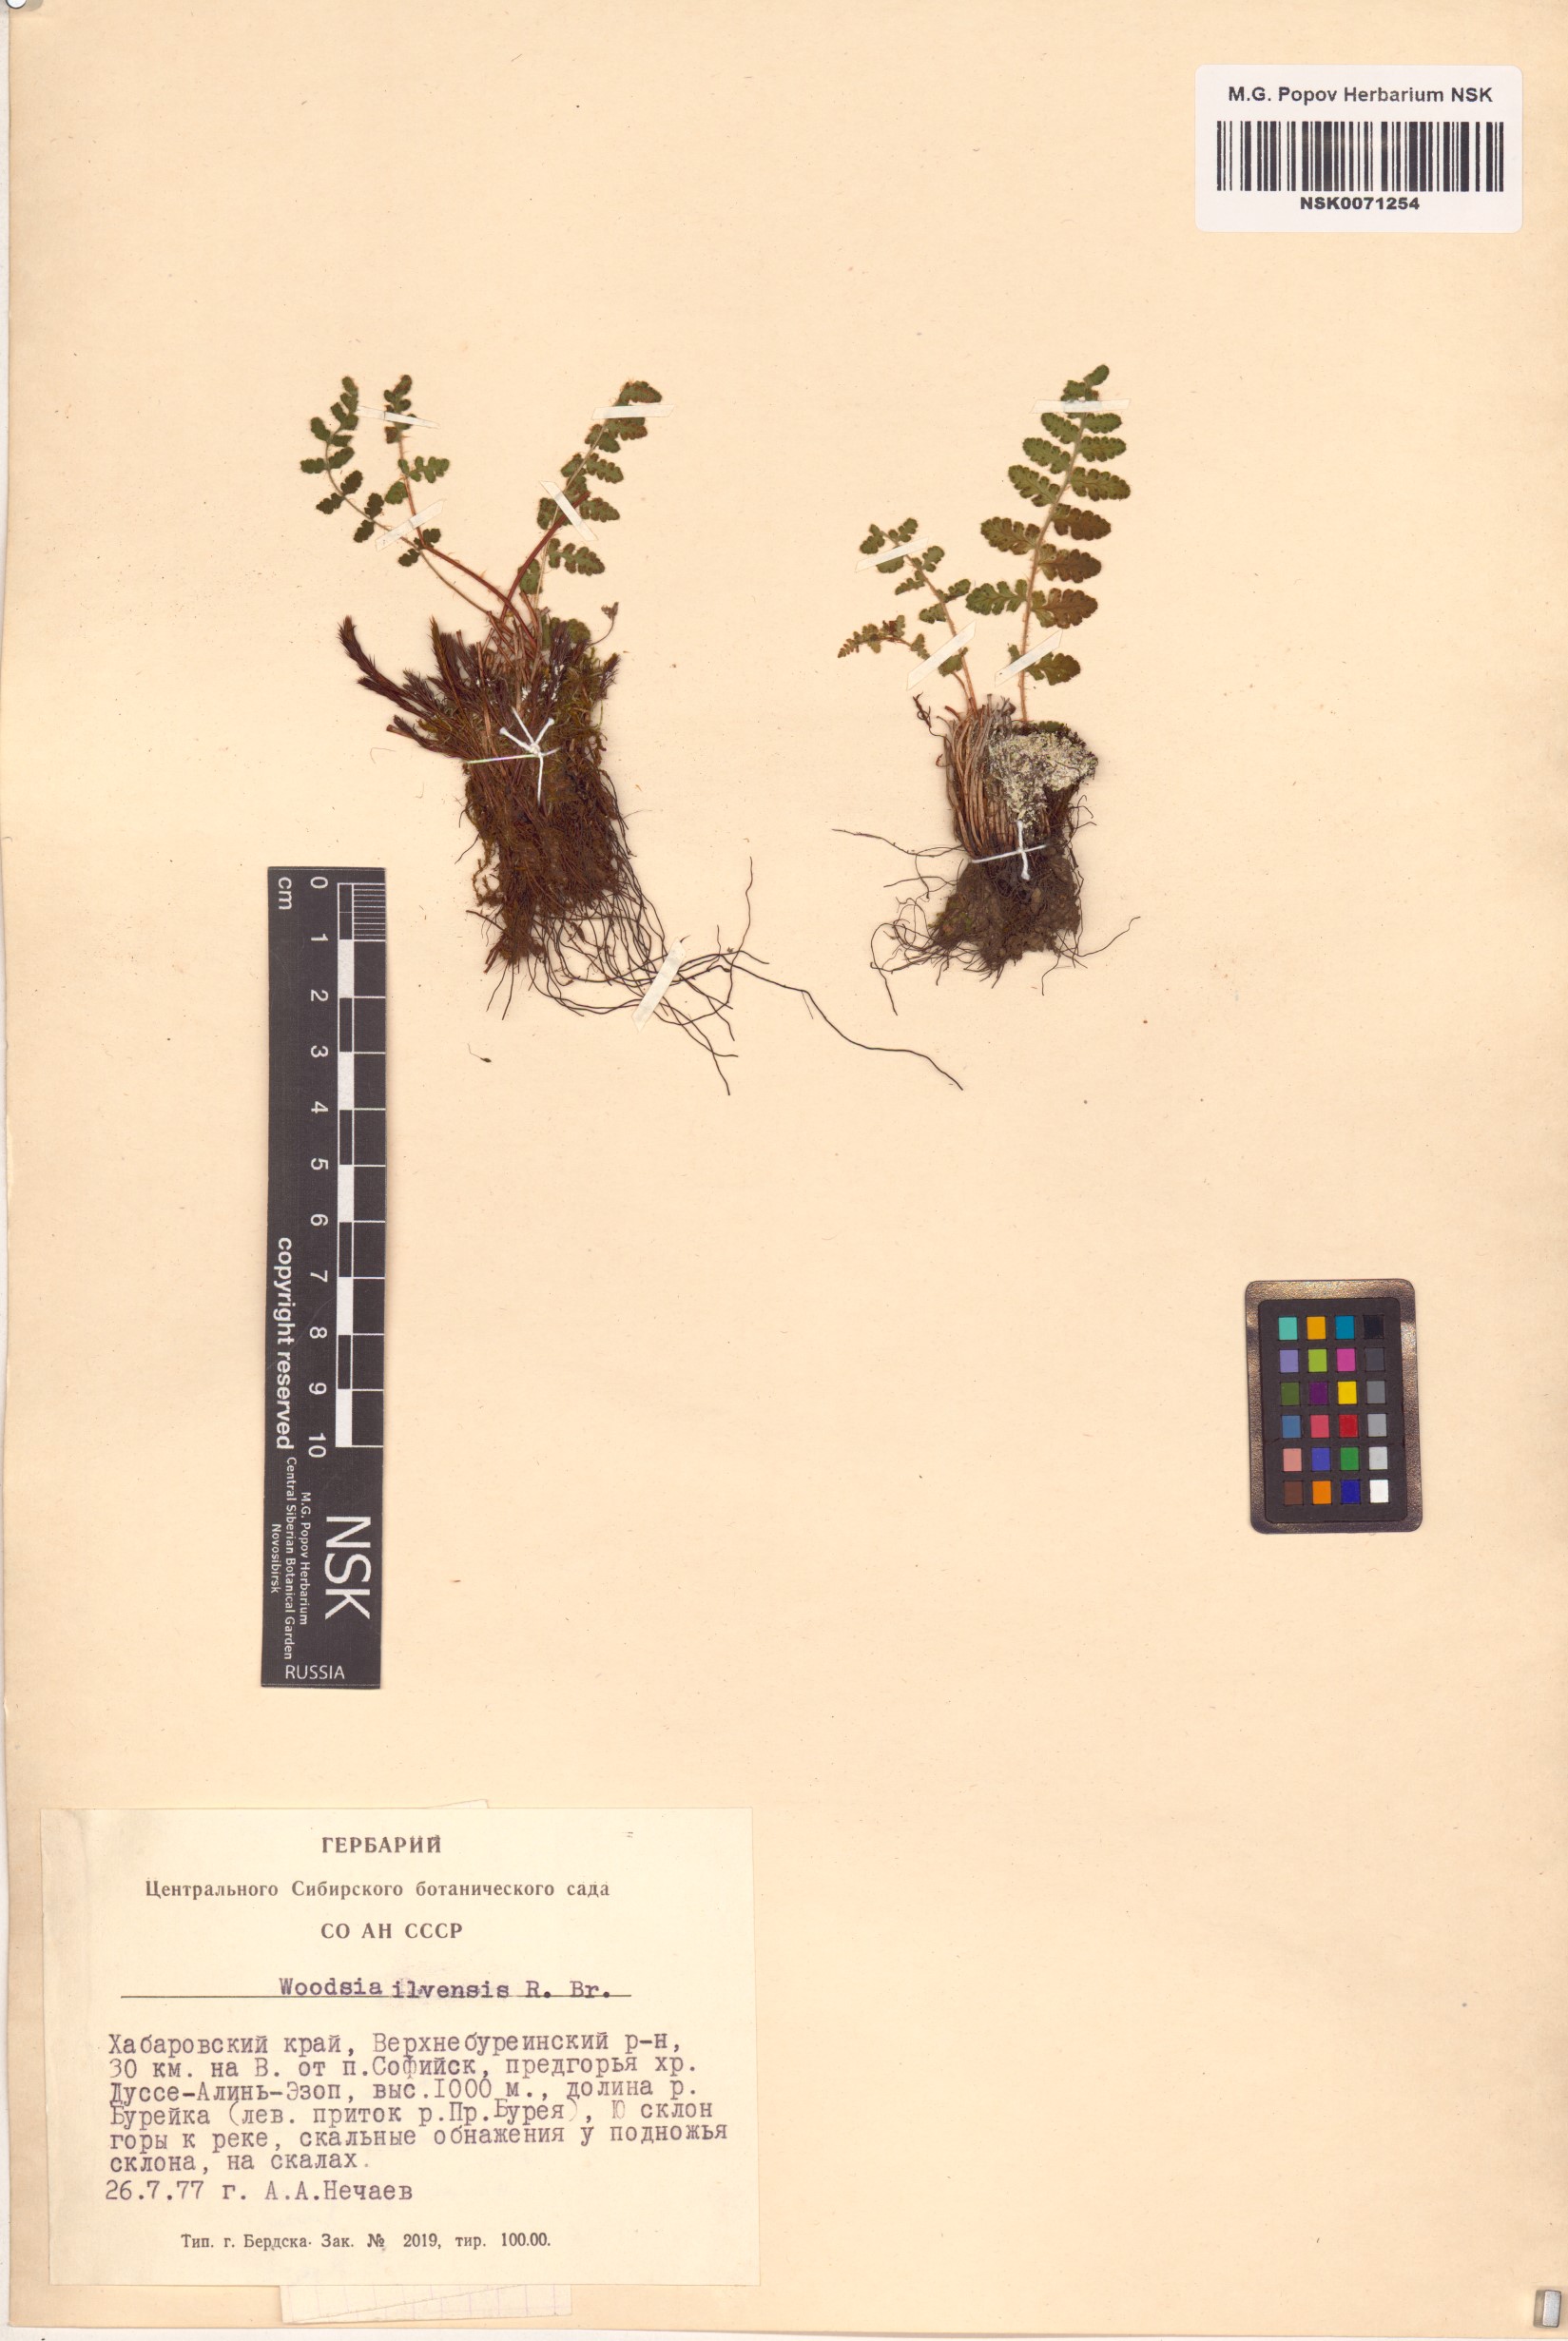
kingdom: Plantae
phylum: Tracheophyta
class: Polypodiopsida
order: Polypodiales
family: Woodsiaceae
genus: Woodsia
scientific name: Woodsia ilvensis
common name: Fragrant woodsia
